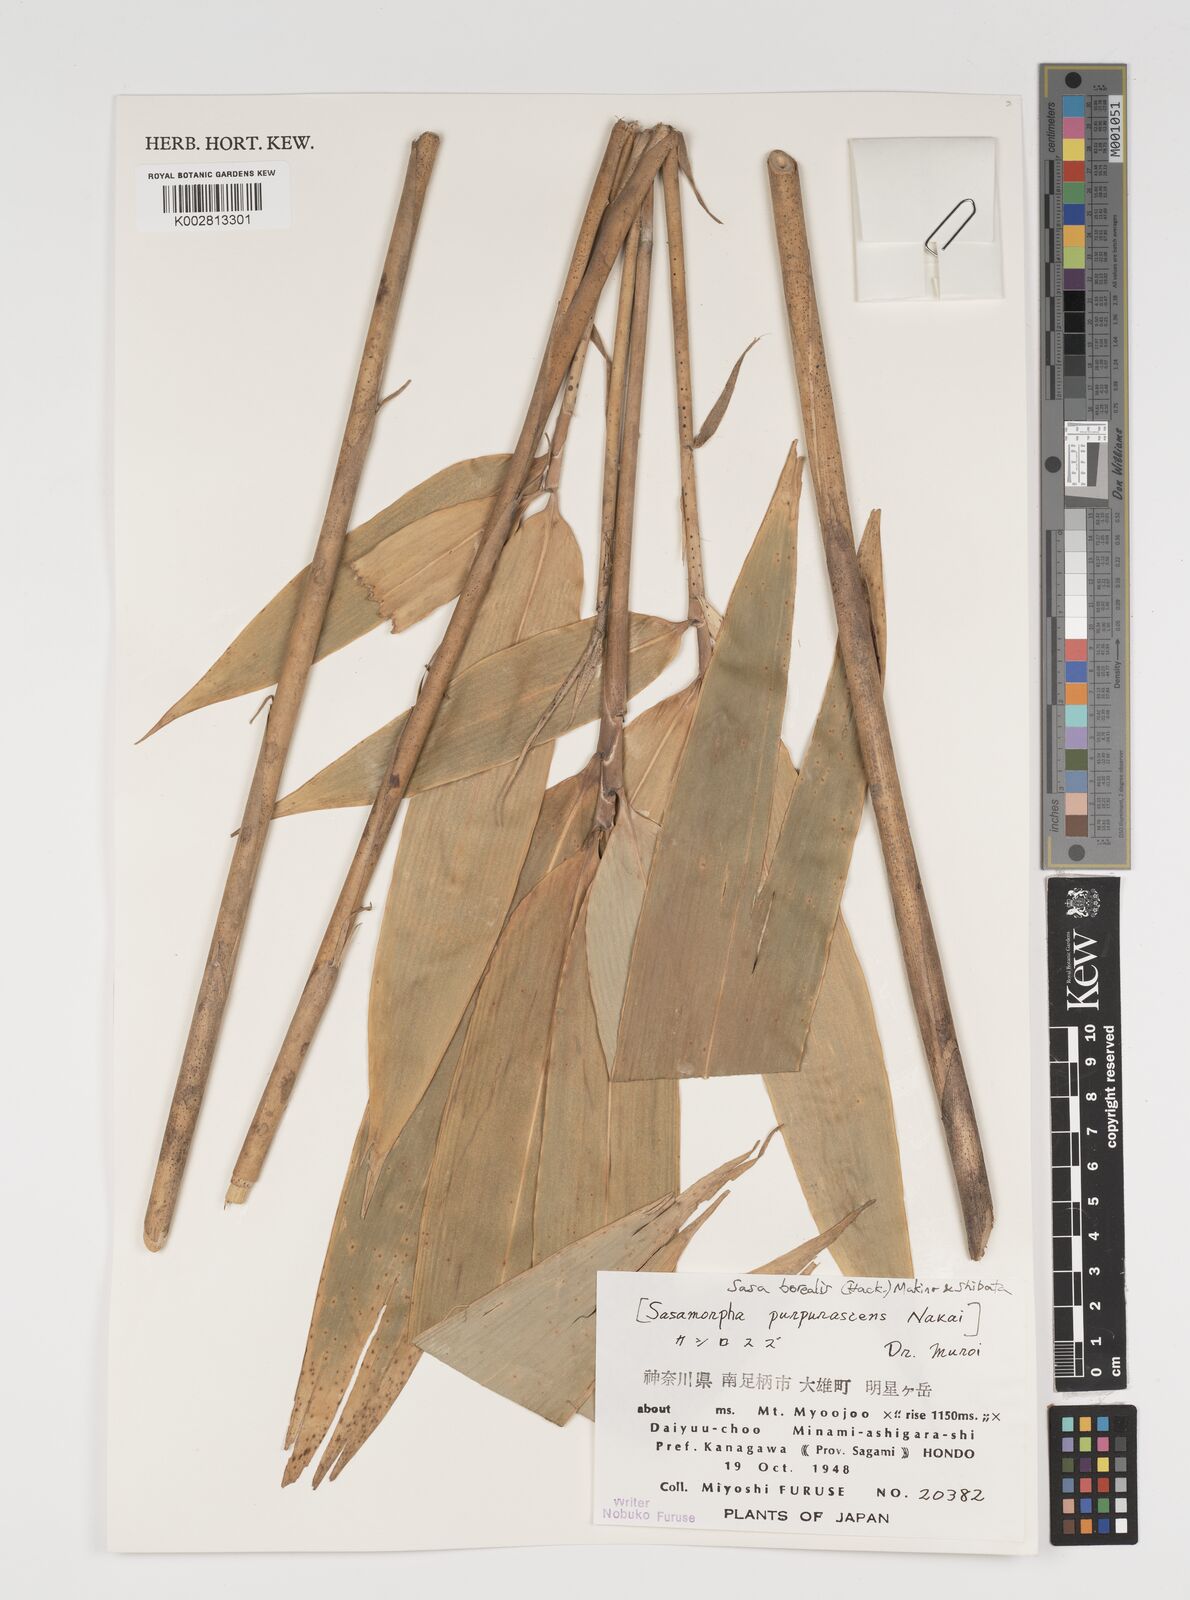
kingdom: Plantae
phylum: Tracheophyta
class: Liliopsida
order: Poales
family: Poaceae
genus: Sasamorpha
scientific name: Sasamorpha borealis
